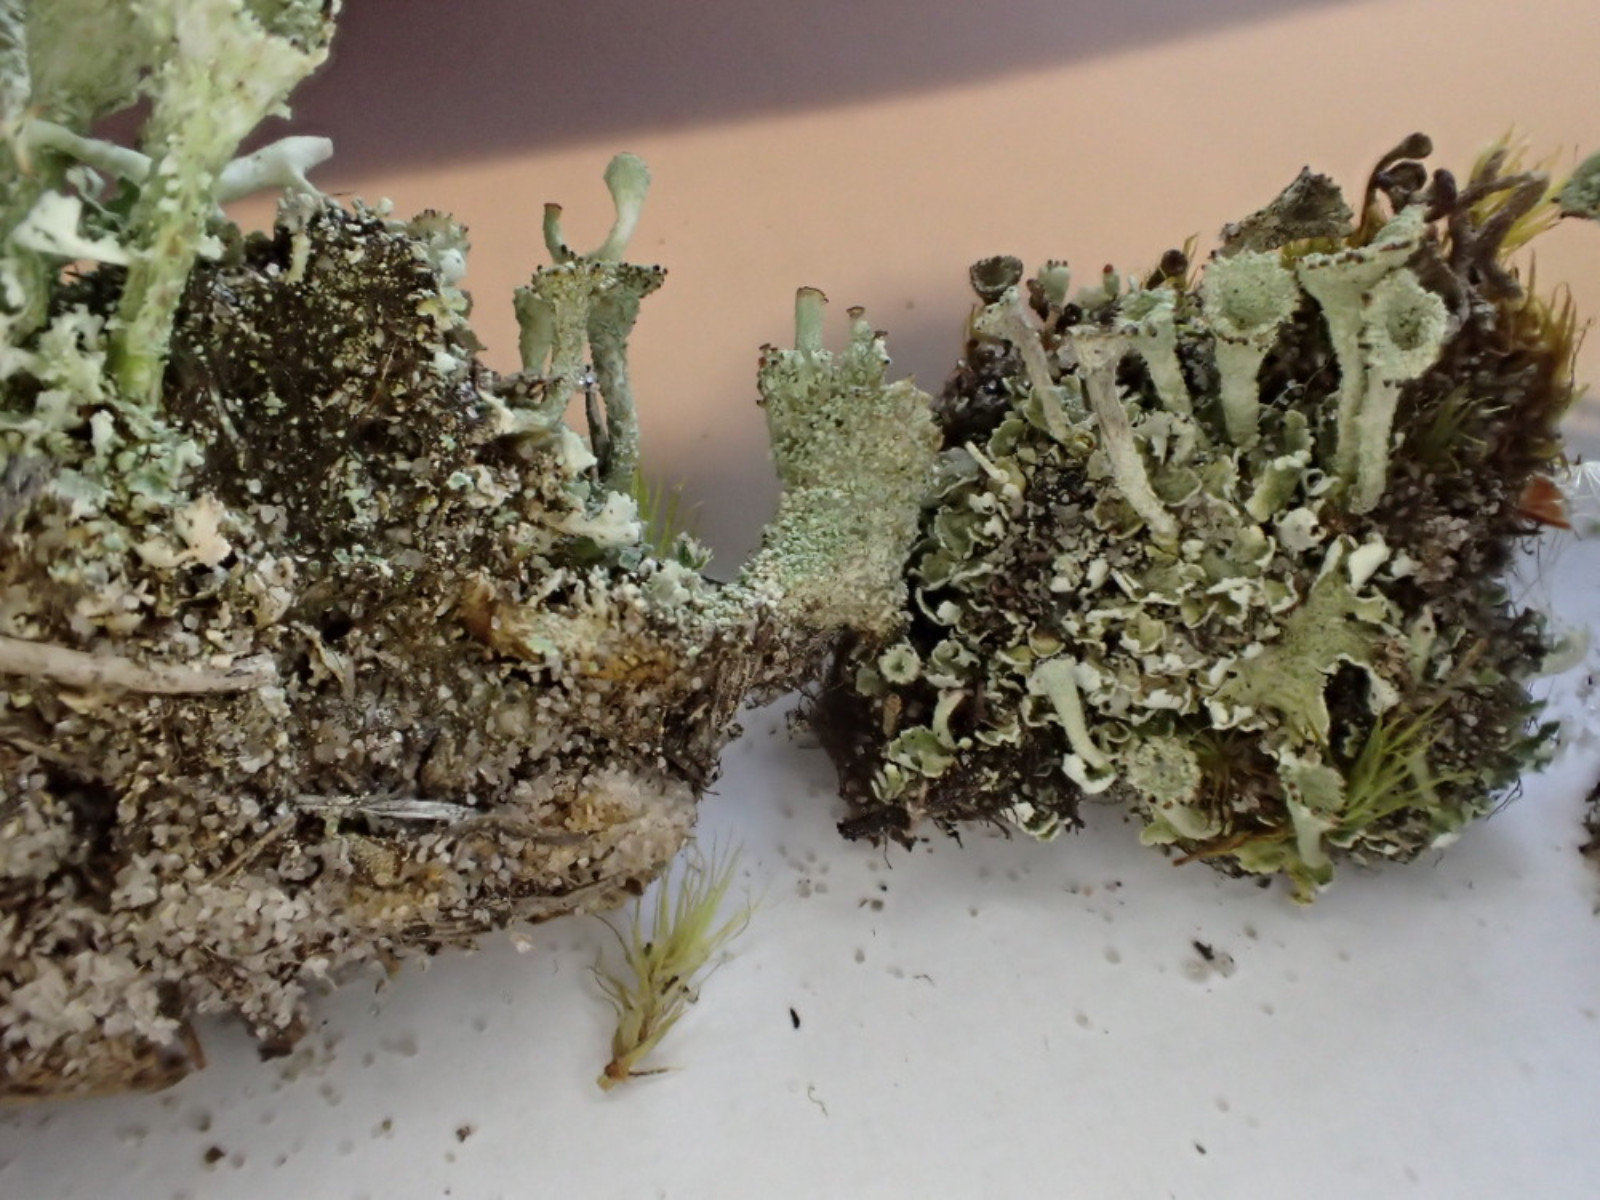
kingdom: Fungi
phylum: Ascomycota
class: Lecanoromycetes
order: Lecanorales
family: Cladoniaceae
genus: Cladonia
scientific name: Cladonia diversa
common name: rød bægerlav
